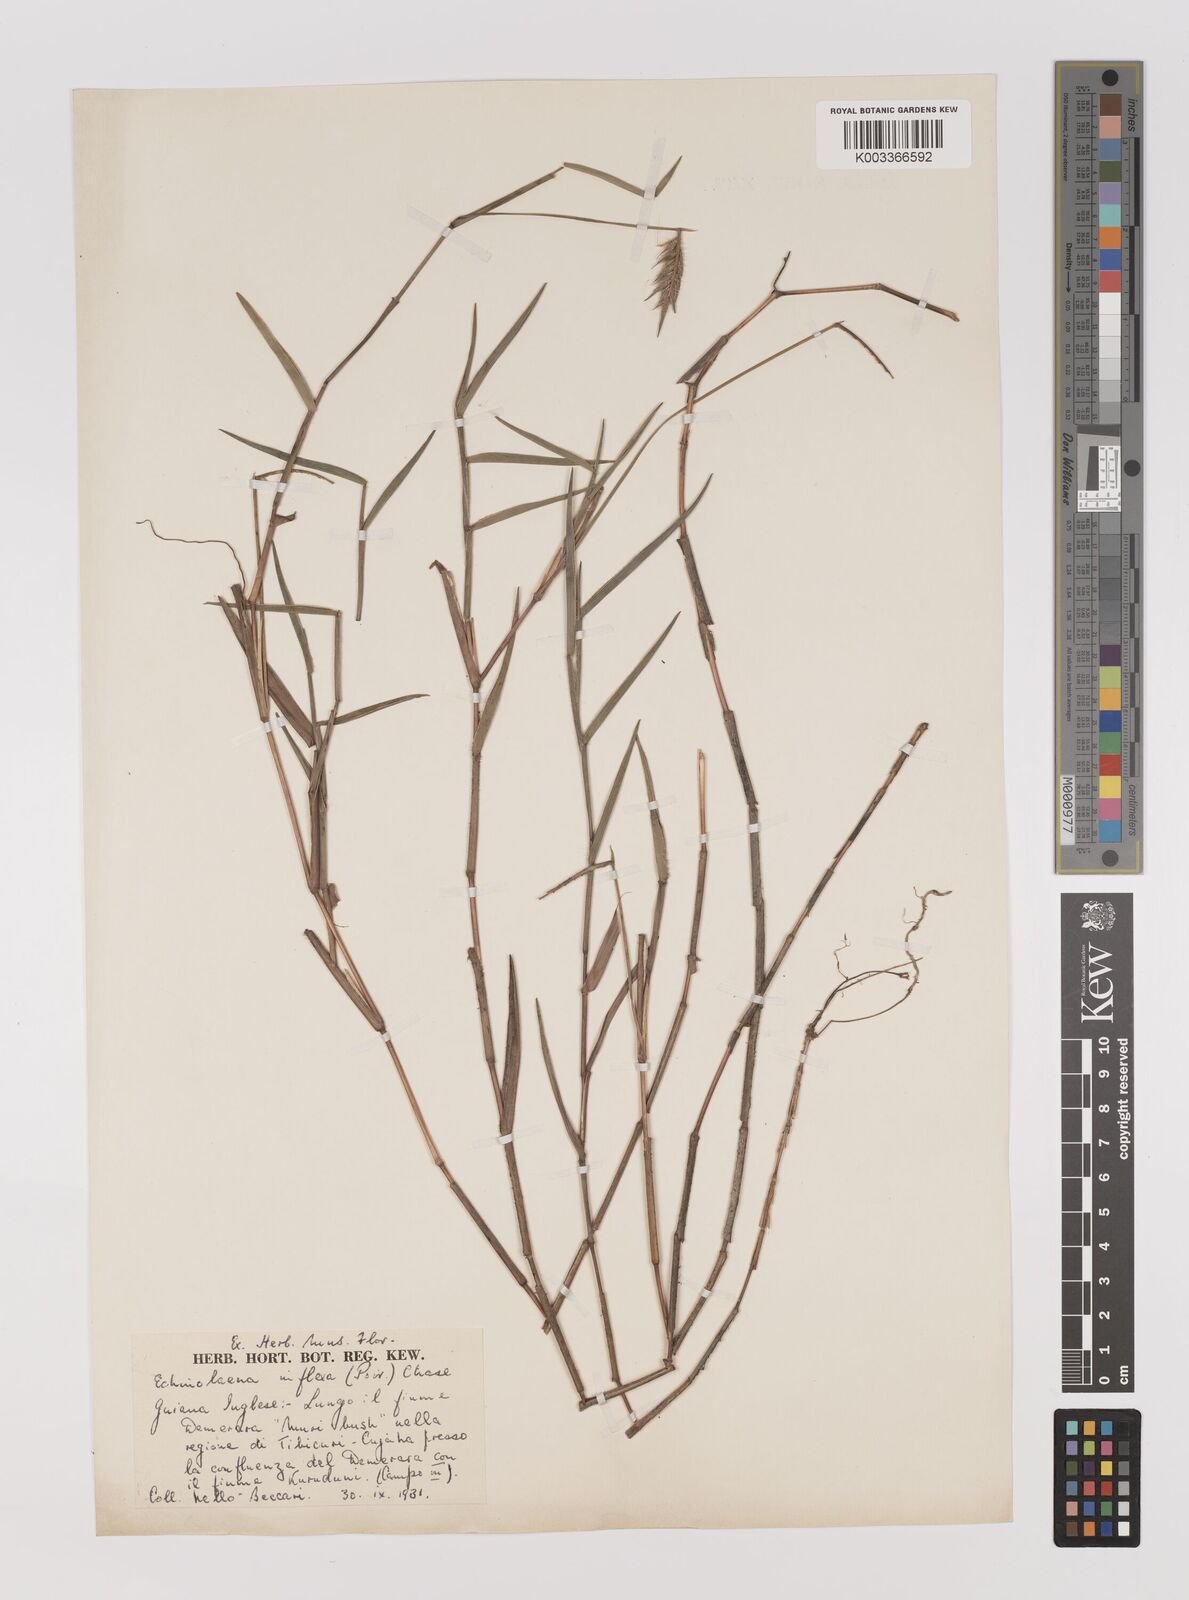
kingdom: Plantae
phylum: Tracheophyta
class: Liliopsida
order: Poales
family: Poaceae
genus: Echinolaena
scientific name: Echinolaena inflexa
